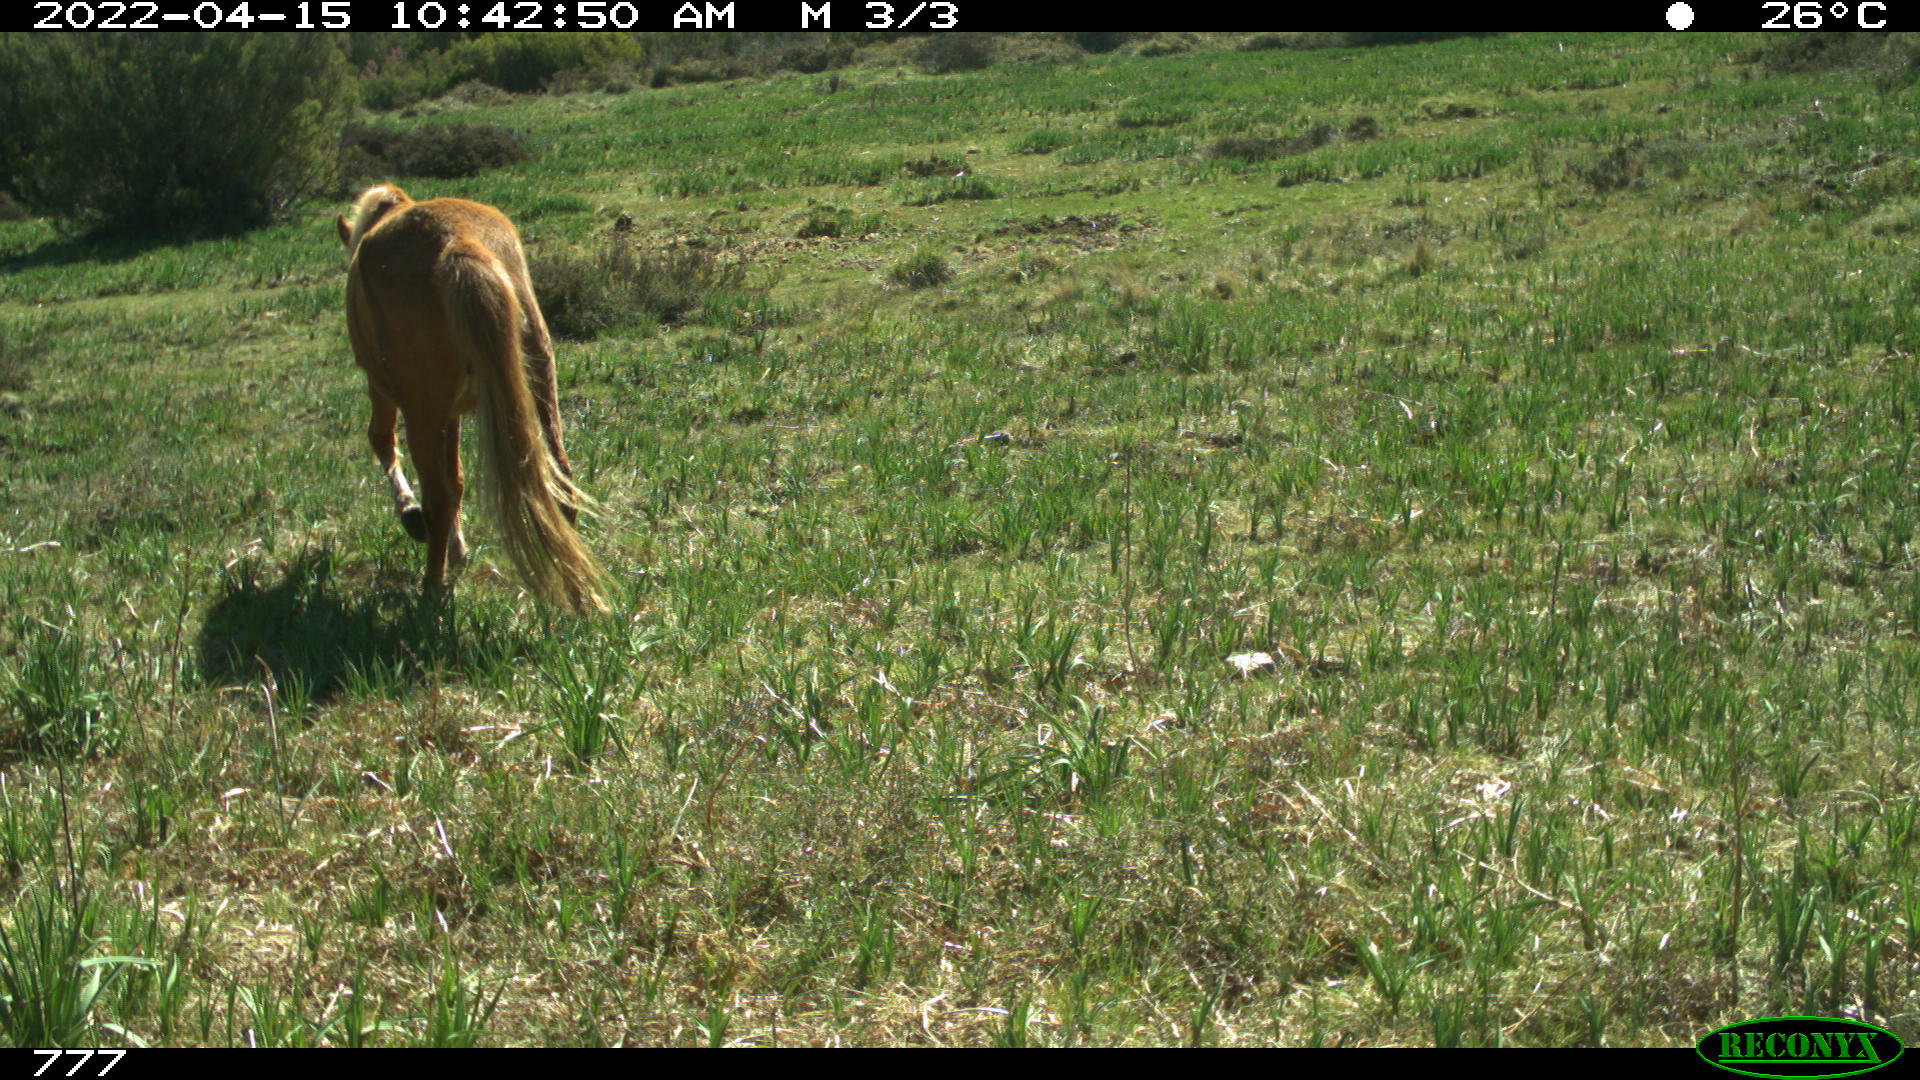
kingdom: Animalia
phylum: Chordata
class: Mammalia
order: Perissodactyla
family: Equidae
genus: Equus
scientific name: Equus caballus
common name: Horse
